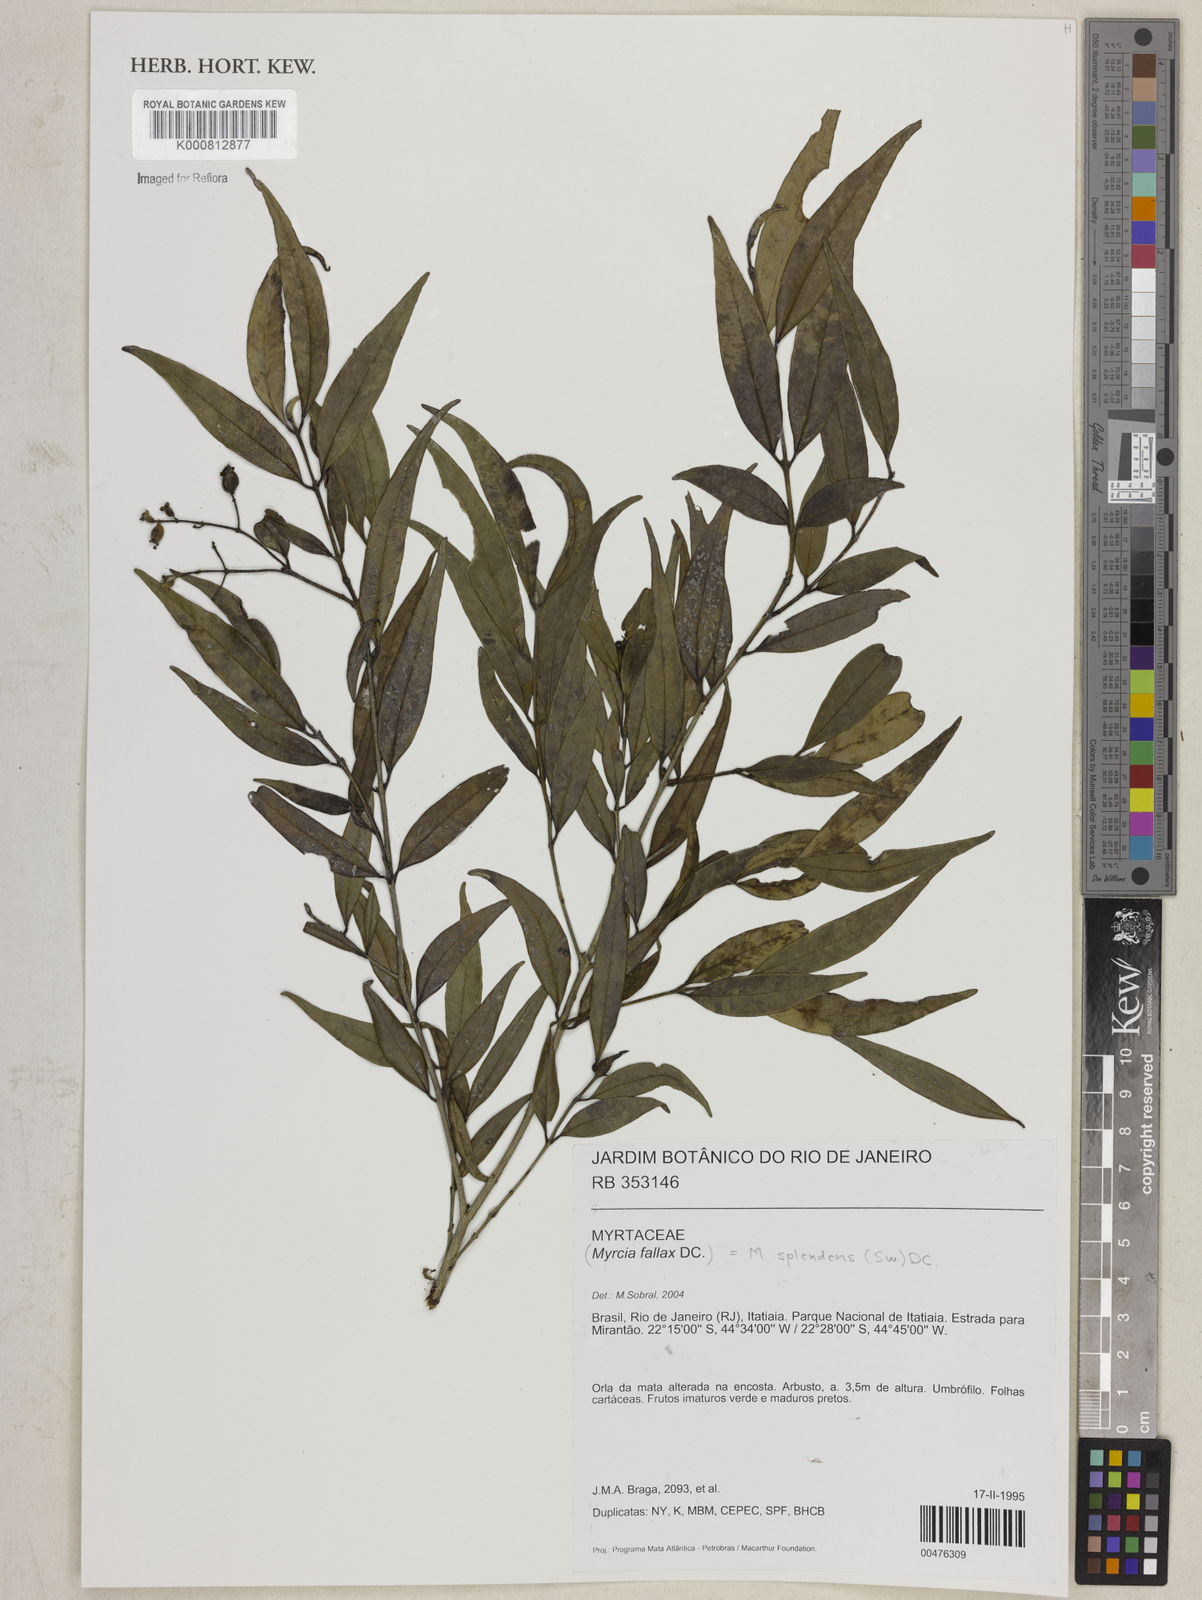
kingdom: Plantae
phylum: Tracheophyta
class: Magnoliopsida
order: Myrtales
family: Myrtaceae
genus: Myrcia
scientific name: Myrcia splendens
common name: Surinam cherry
